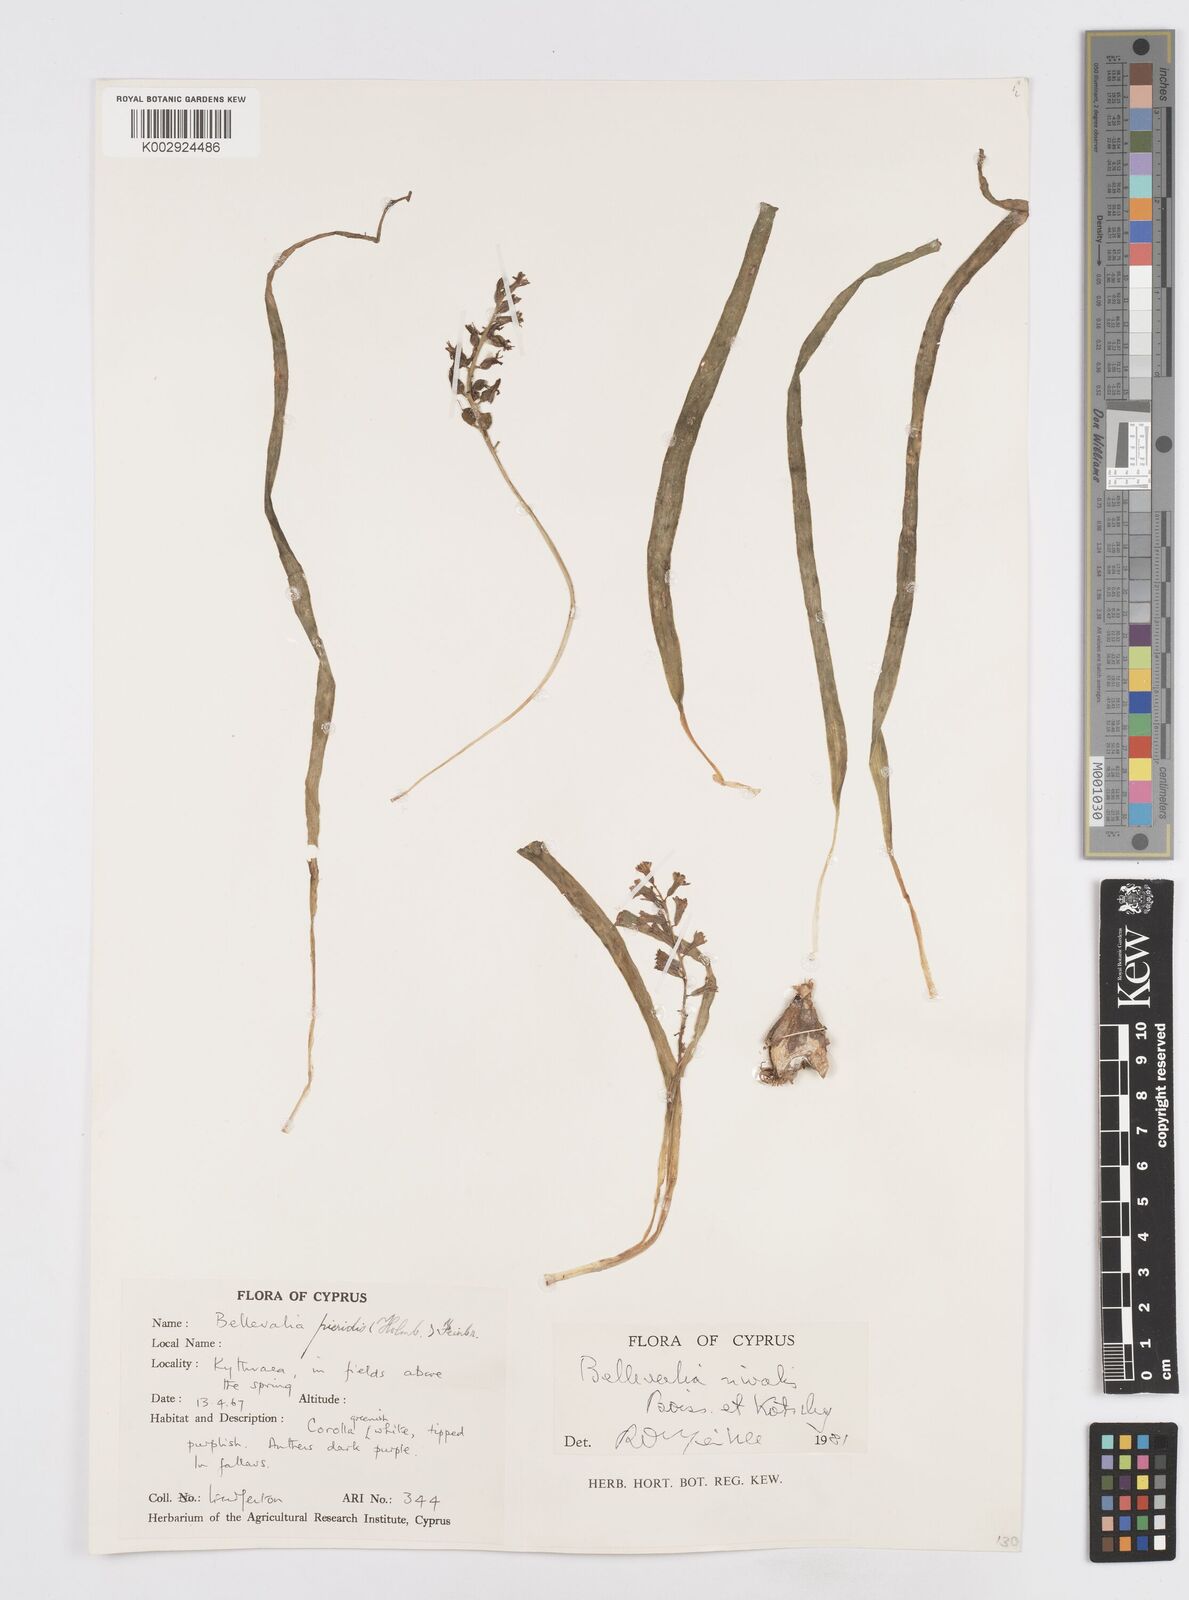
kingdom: Plantae
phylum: Tracheophyta
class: Liliopsida
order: Asparagales
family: Asparagaceae
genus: Bellevalia
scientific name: Bellevalia nivalis
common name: Snow bellevalia
